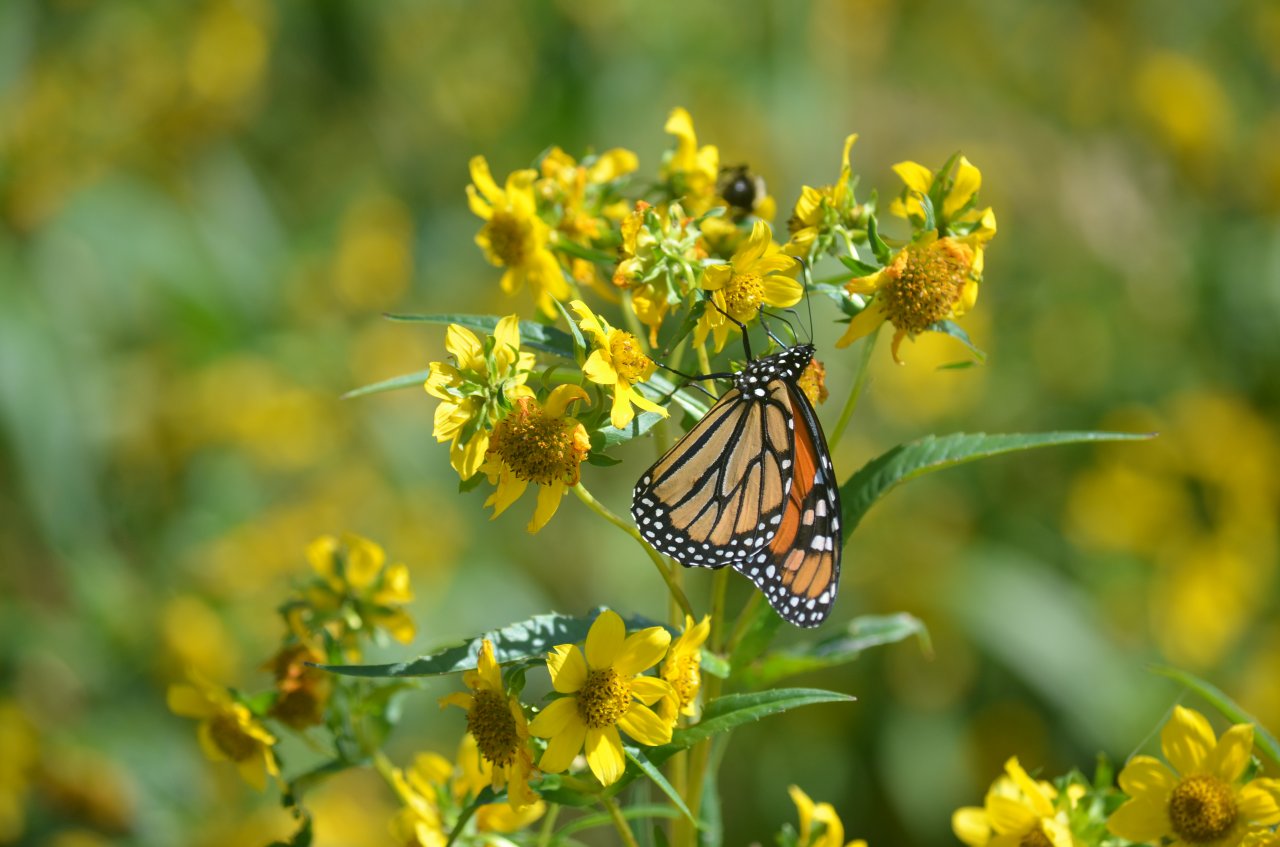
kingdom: Animalia
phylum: Arthropoda
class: Insecta
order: Lepidoptera
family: Nymphalidae
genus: Danaus
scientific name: Danaus plexippus
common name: Monarch
